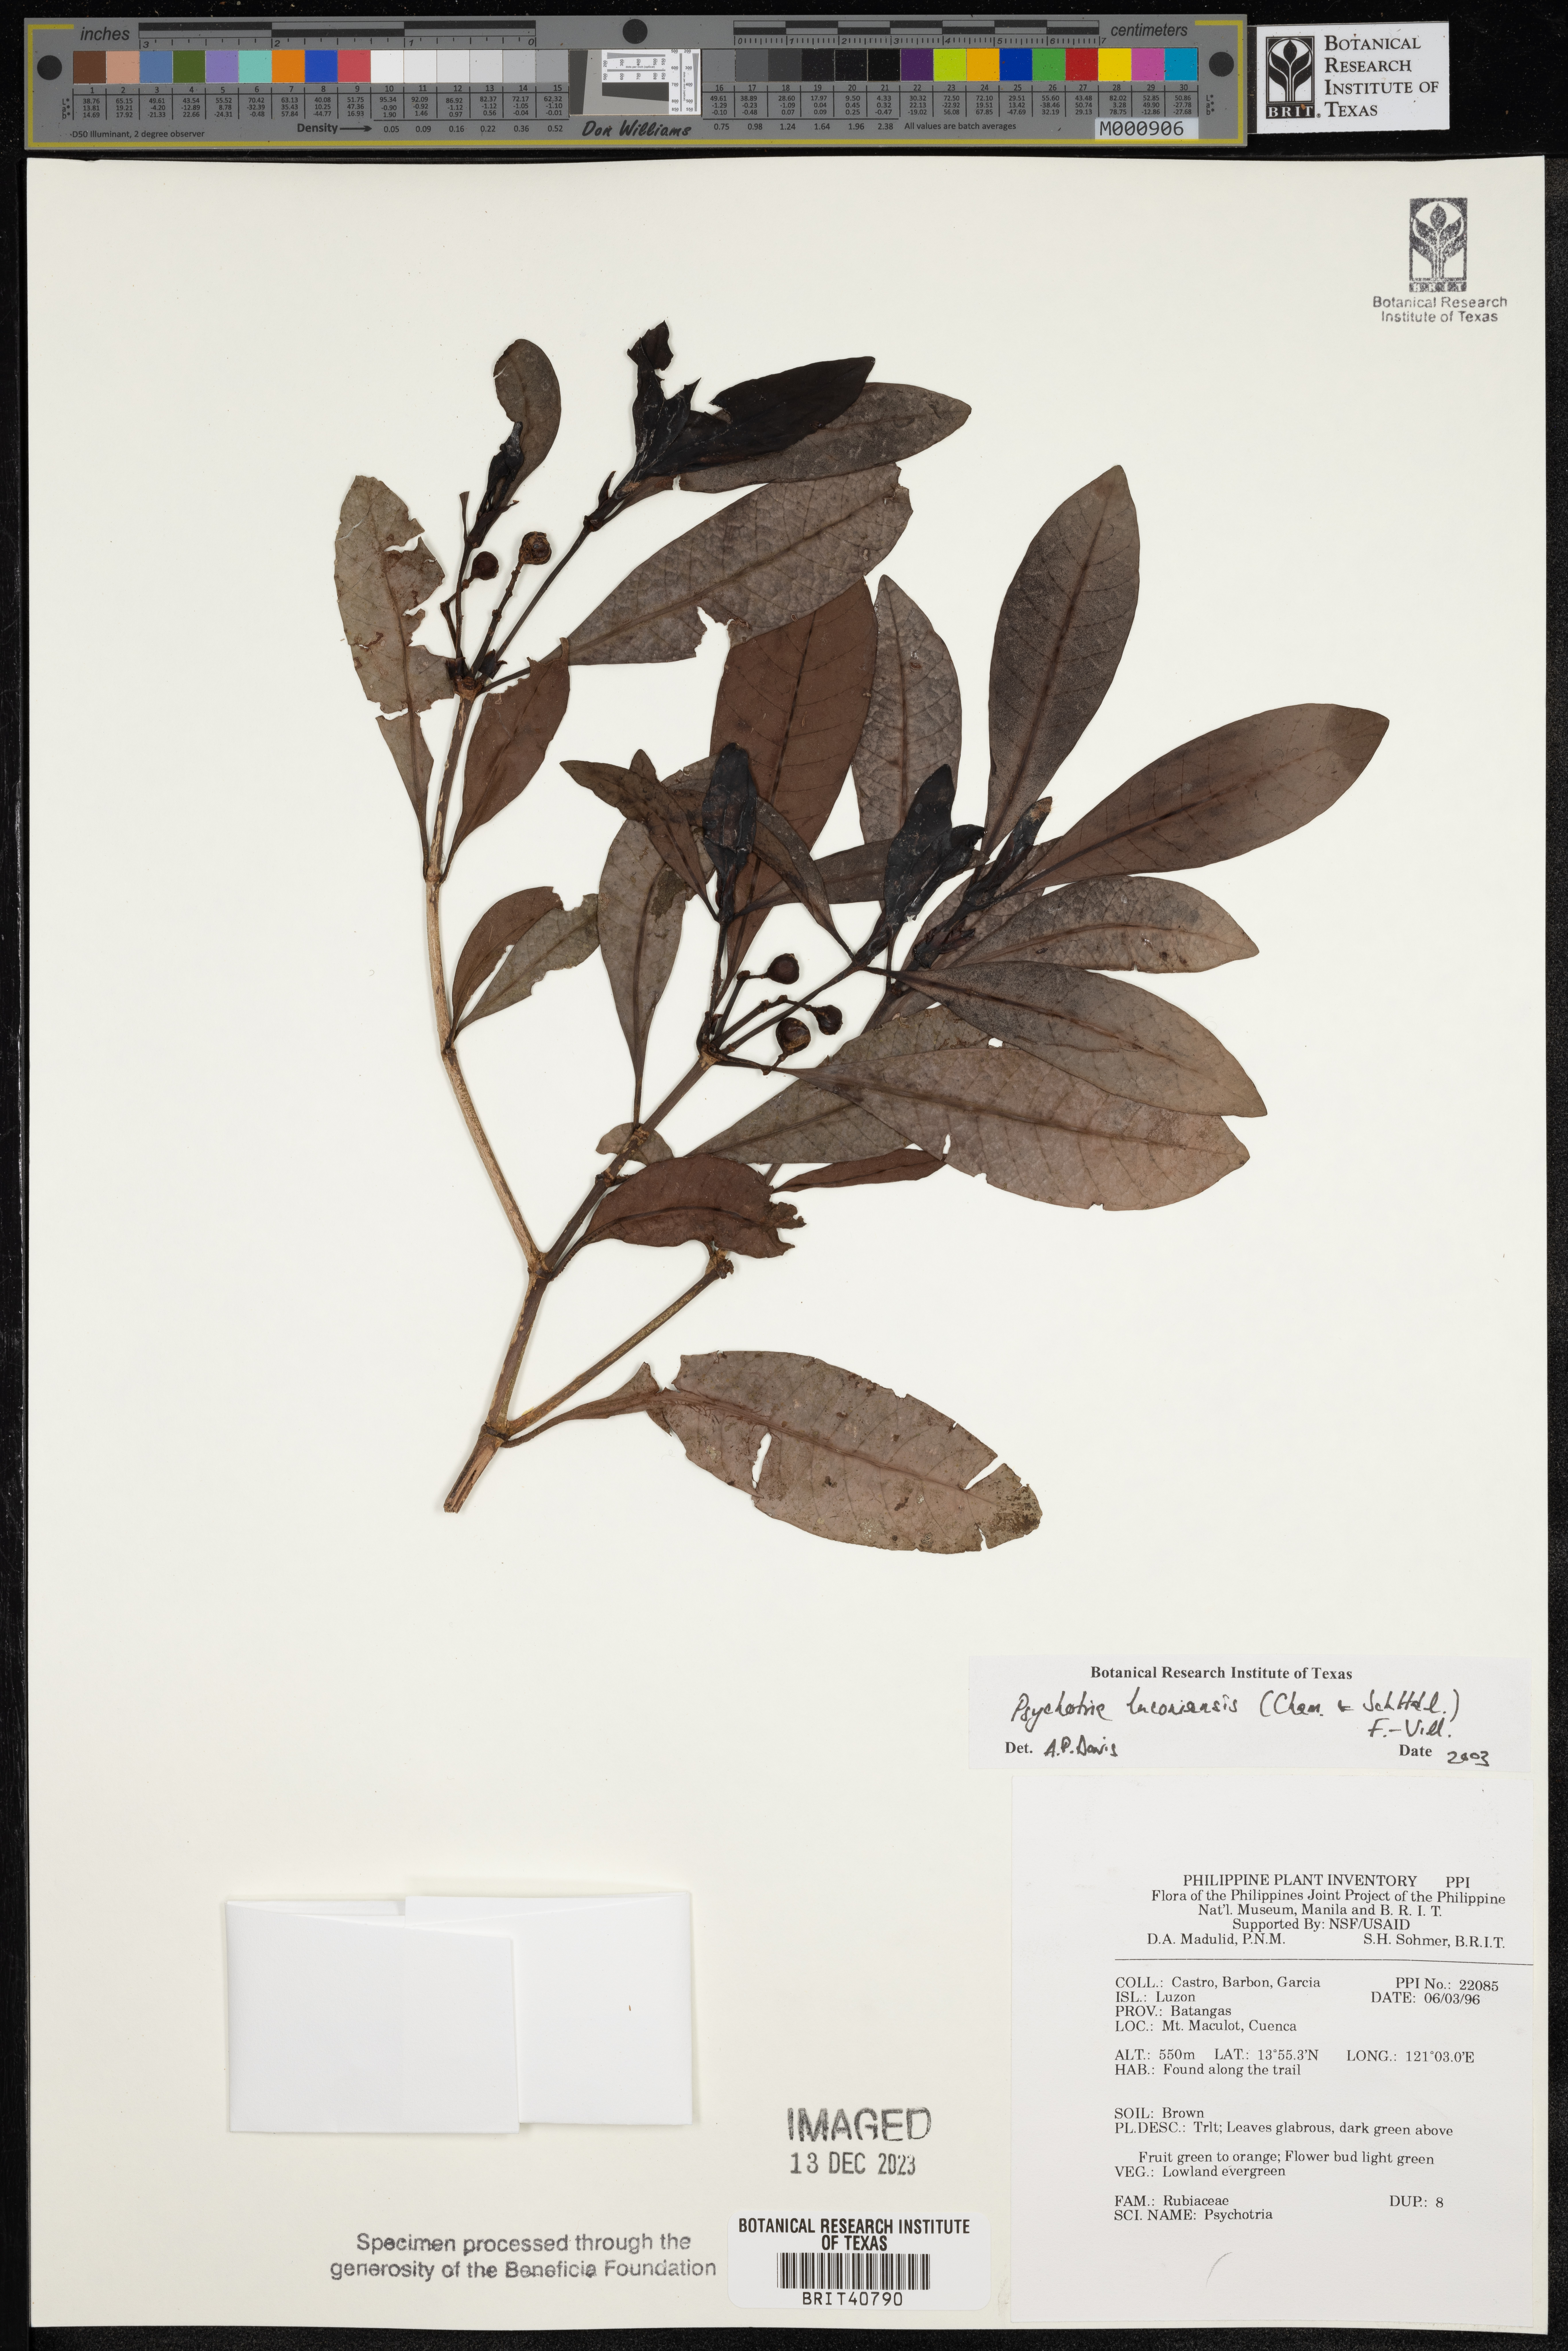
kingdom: Plantae
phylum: Tracheophyta
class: Magnoliopsida
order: Gentianales
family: Rubiaceae
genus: Psychotria
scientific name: Psychotria luzoniensis
